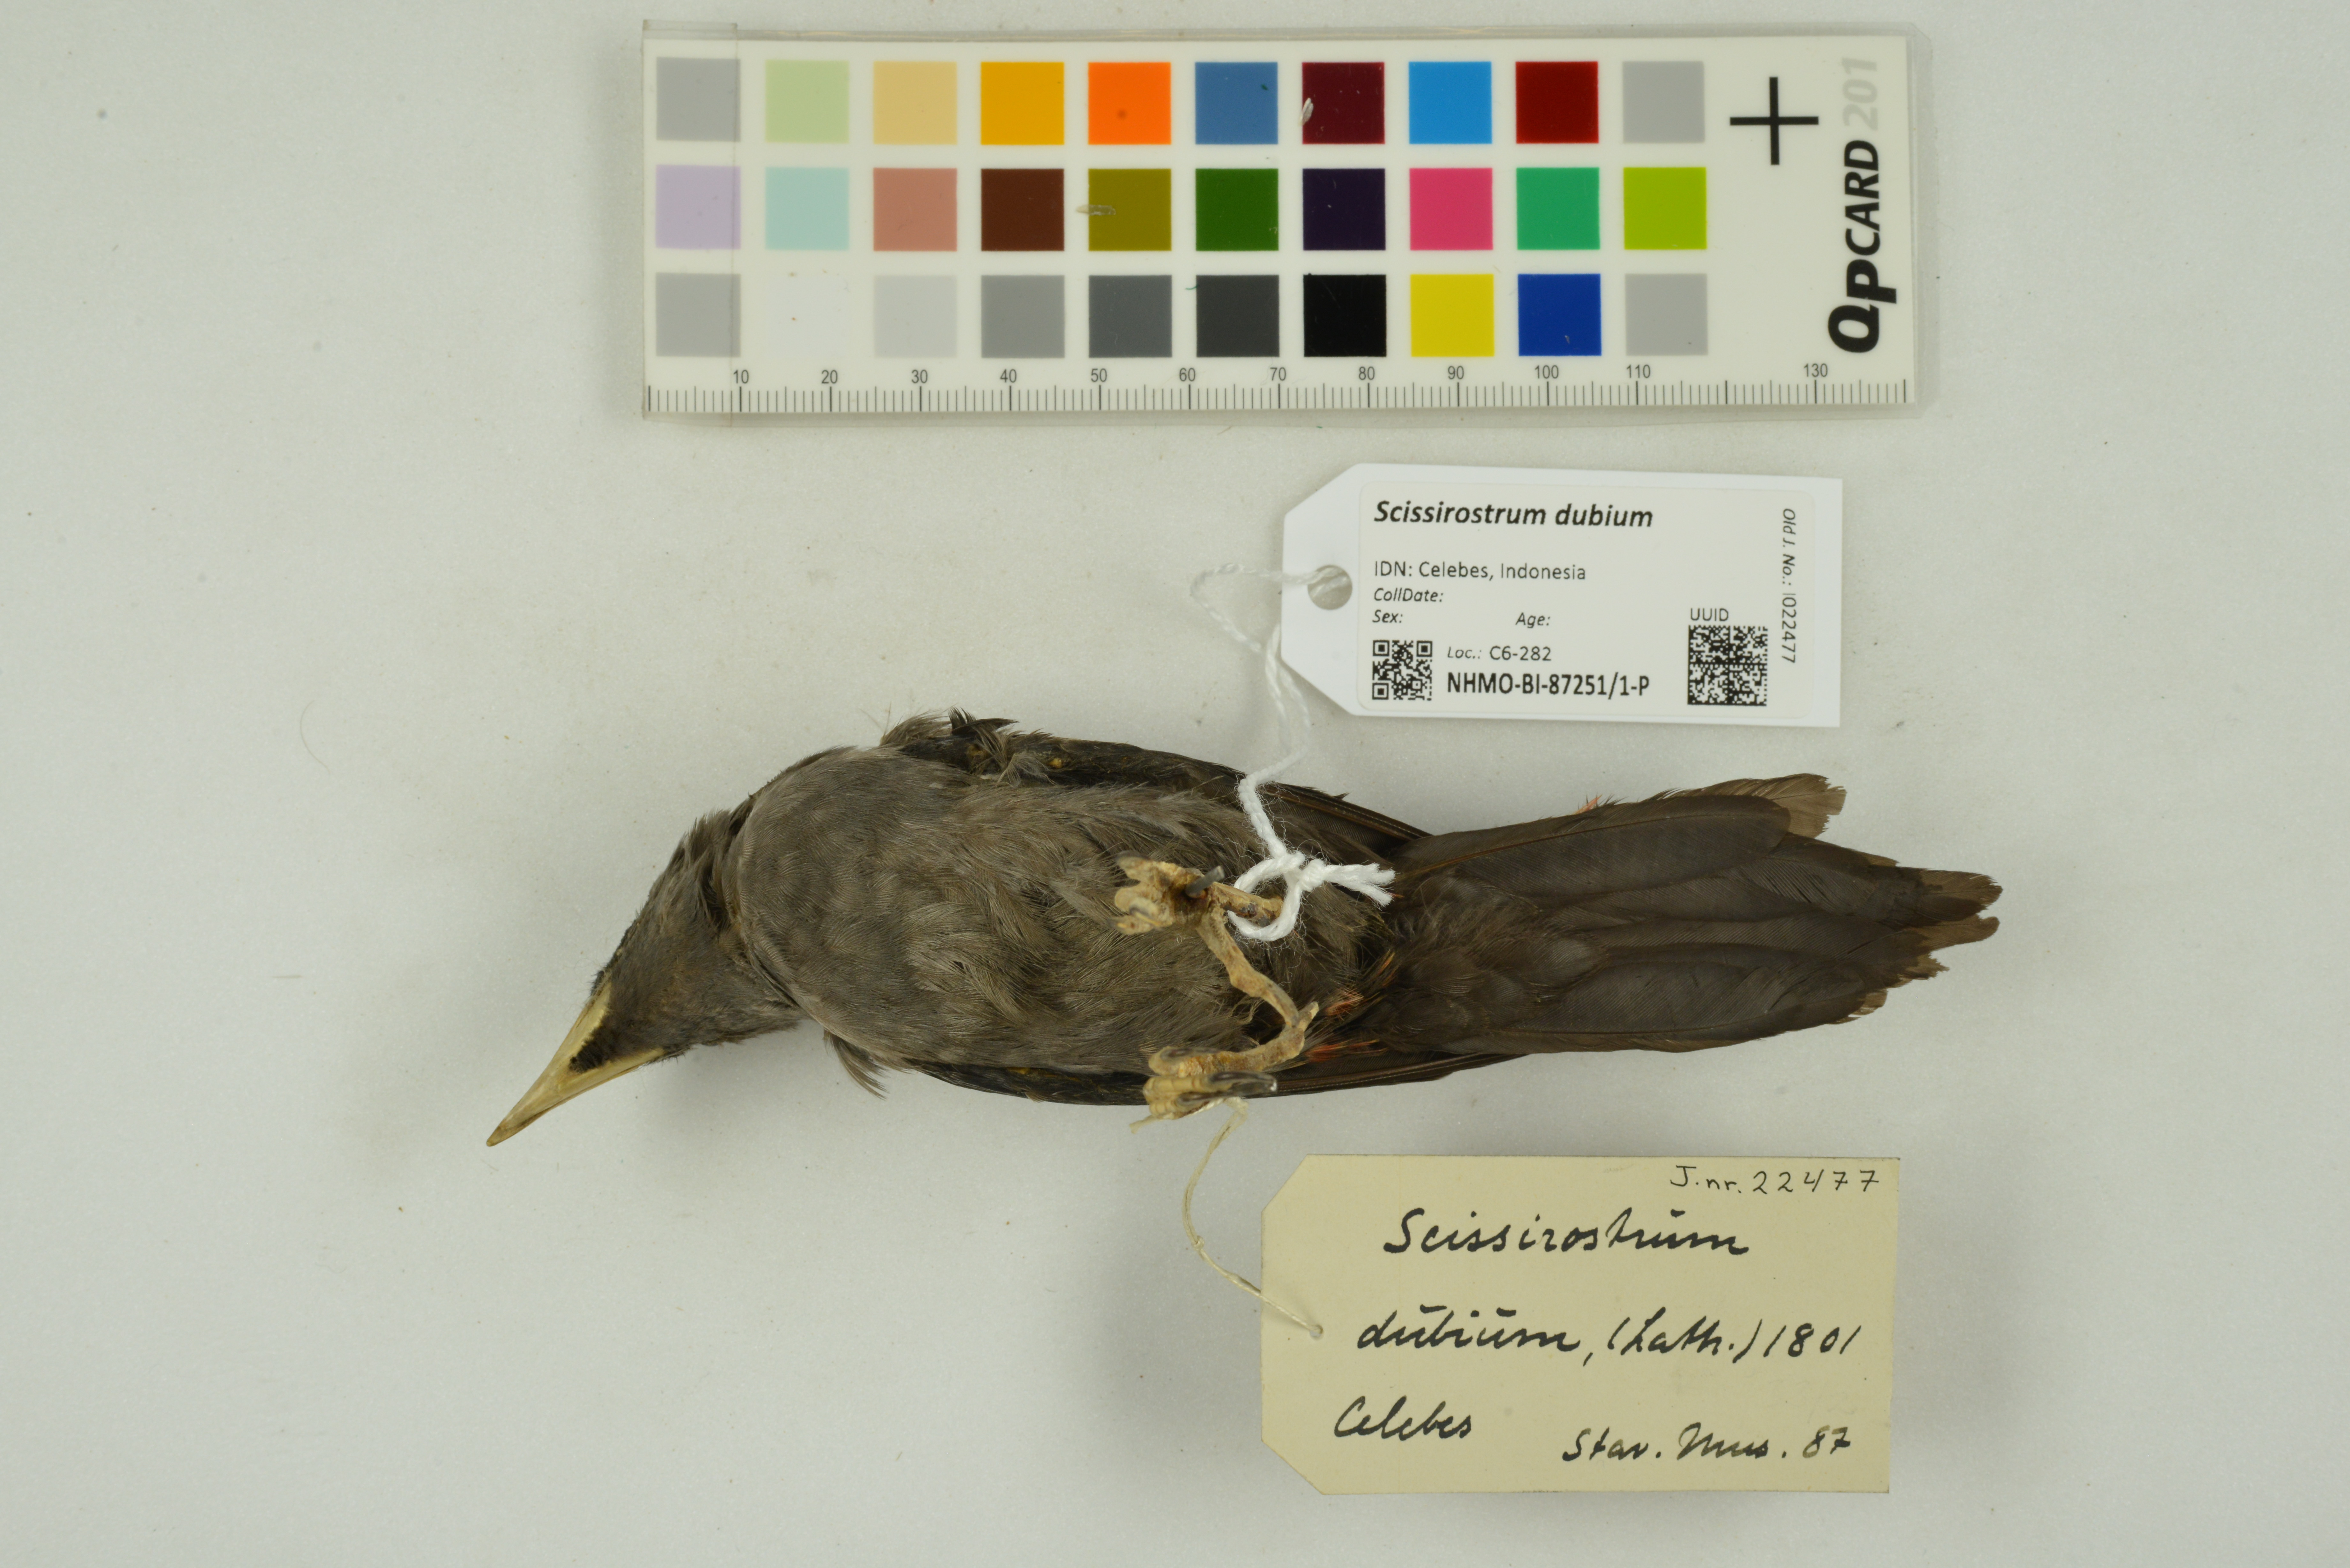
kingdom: Animalia
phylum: Chordata
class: Aves
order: Passeriformes
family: Sturnidae
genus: Scissirostrum
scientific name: Scissirostrum dubium
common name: Grosbeak starling
